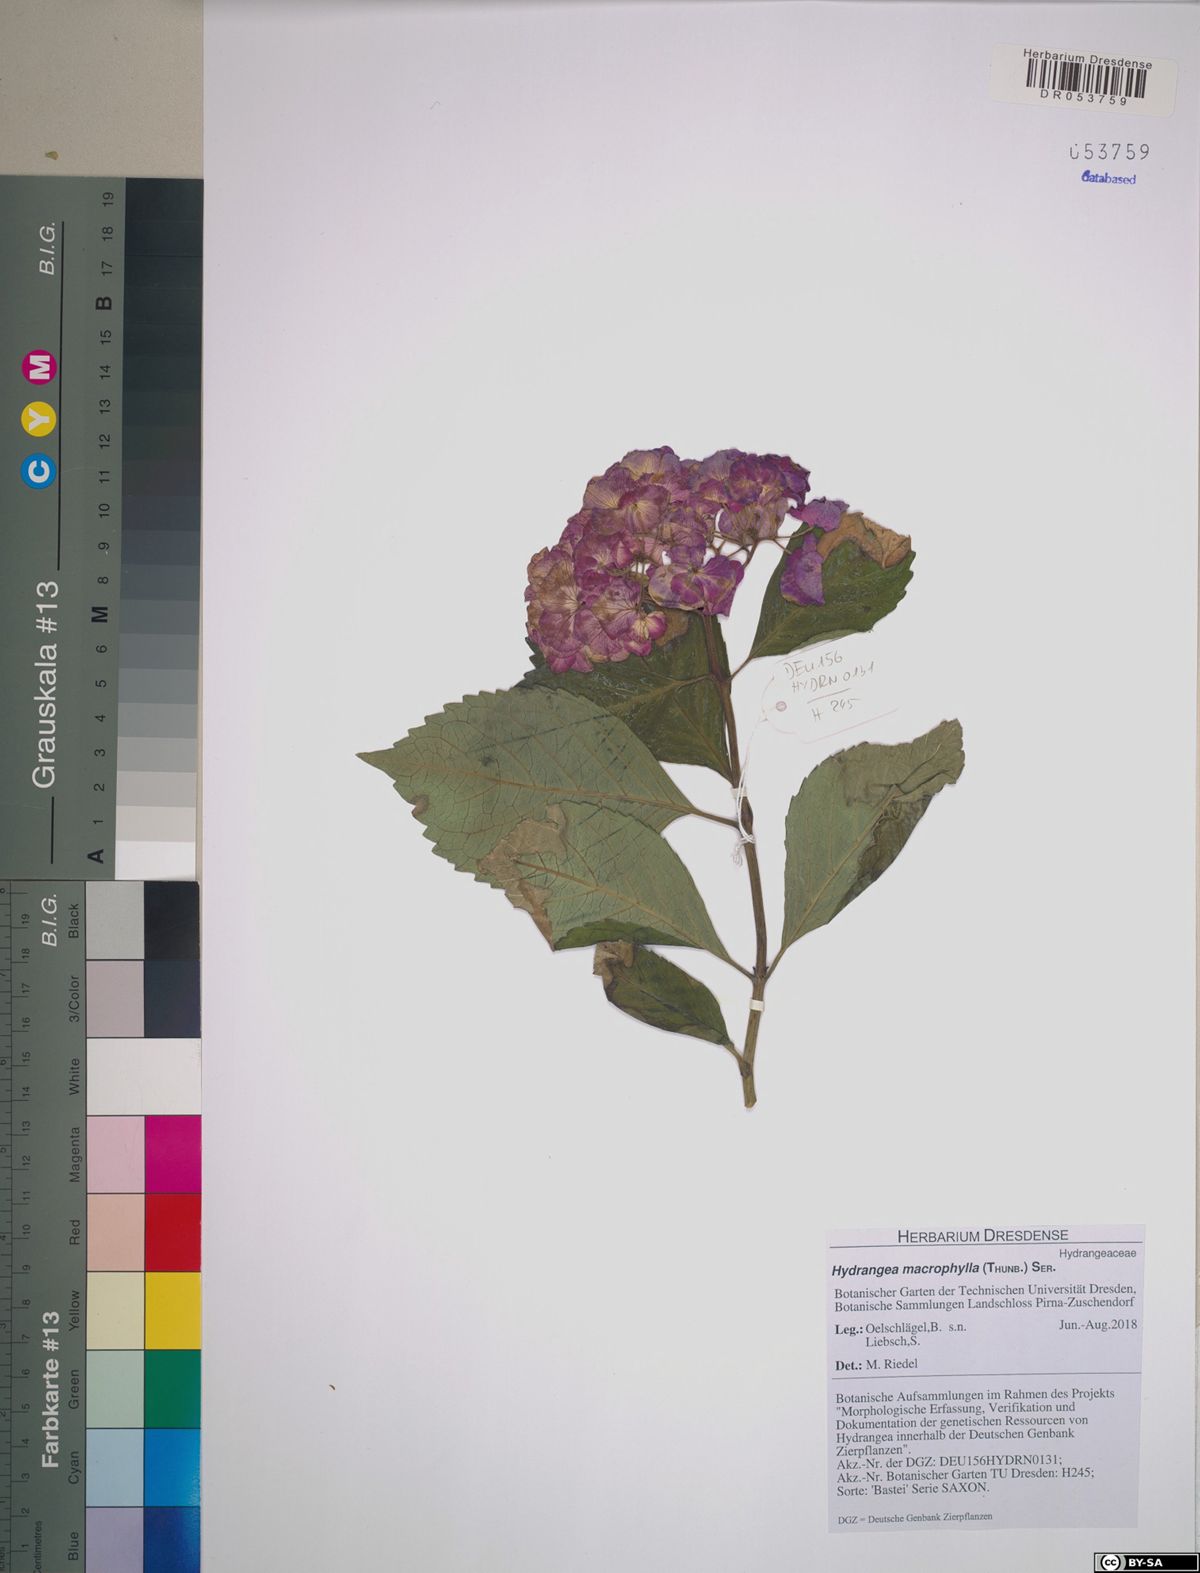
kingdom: Plantae
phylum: Tracheophyta
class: Magnoliopsida
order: Cornales
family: Hydrangeaceae
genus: Hydrangea
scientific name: Hydrangea macrophylla
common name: Hydrangea
